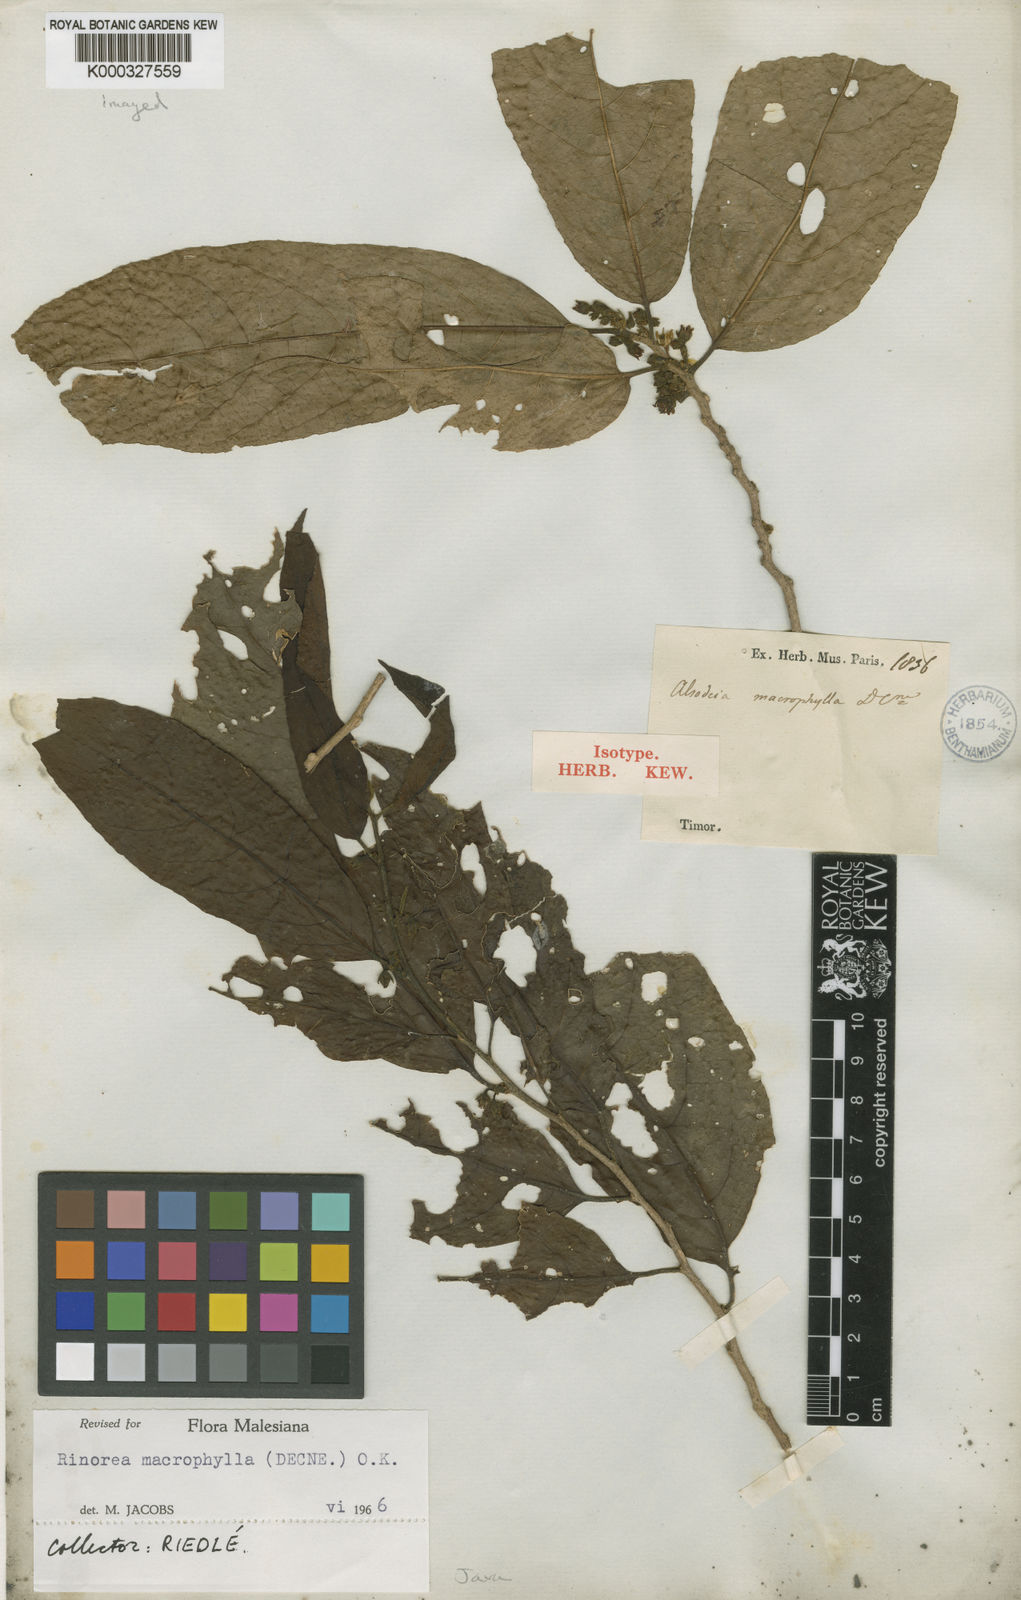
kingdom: Plantae
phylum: Tracheophyta
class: Magnoliopsida
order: Malpighiales
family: Violaceae
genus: Rinorea
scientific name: Rinorea macrophylla
